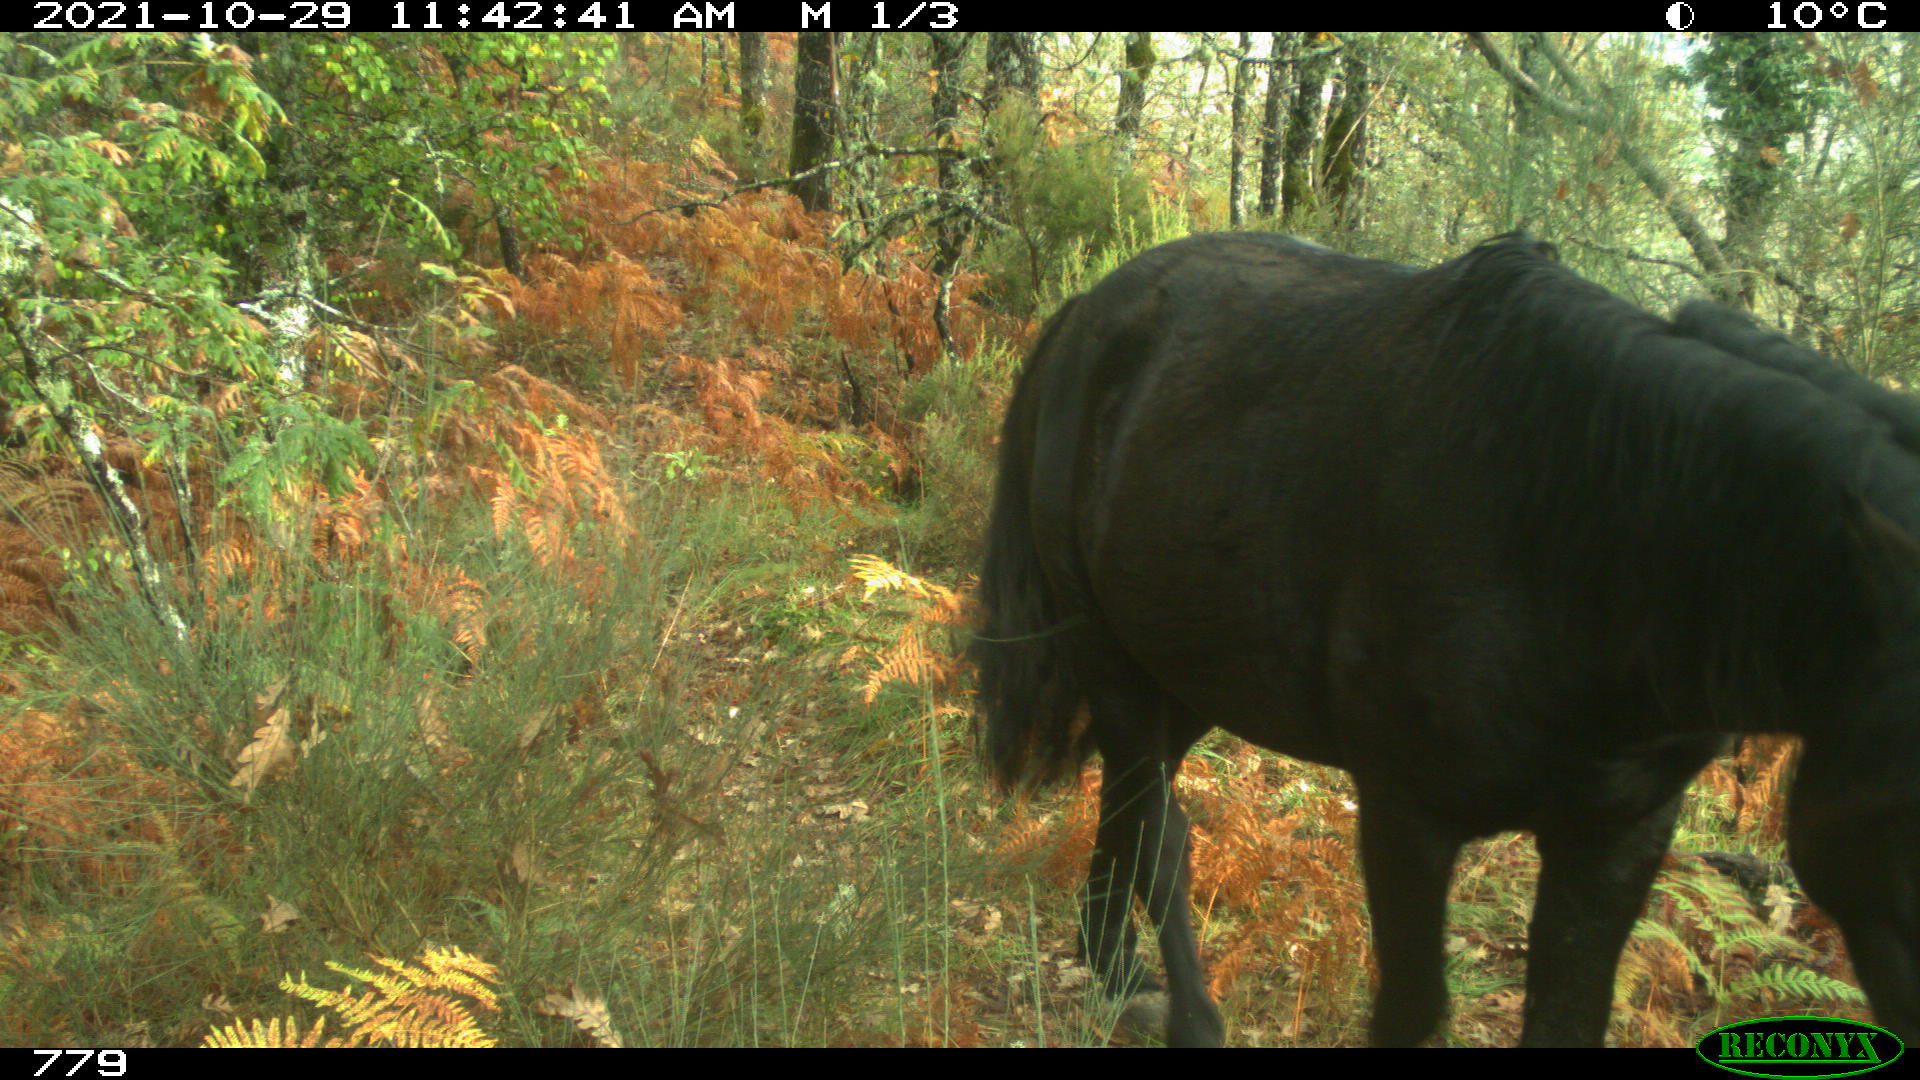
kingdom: Animalia
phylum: Chordata
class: Mammalia
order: Perissodactyla
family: Equidae
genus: Equus
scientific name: Equus caballus
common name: Horse
